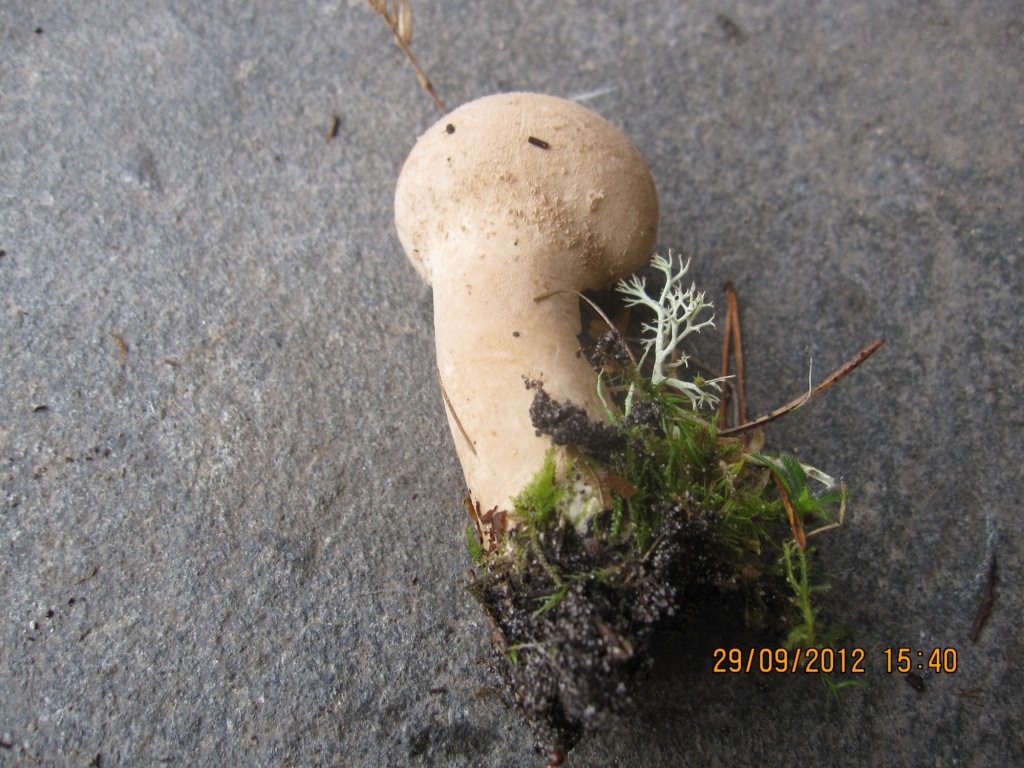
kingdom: Fungi
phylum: Basidiomycota
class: Agaricomycetes
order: Agaricales
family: Lycoperdaceae
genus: Lycoperdon
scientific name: Lycoperdon excipuliforme
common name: højstokket støvbold
